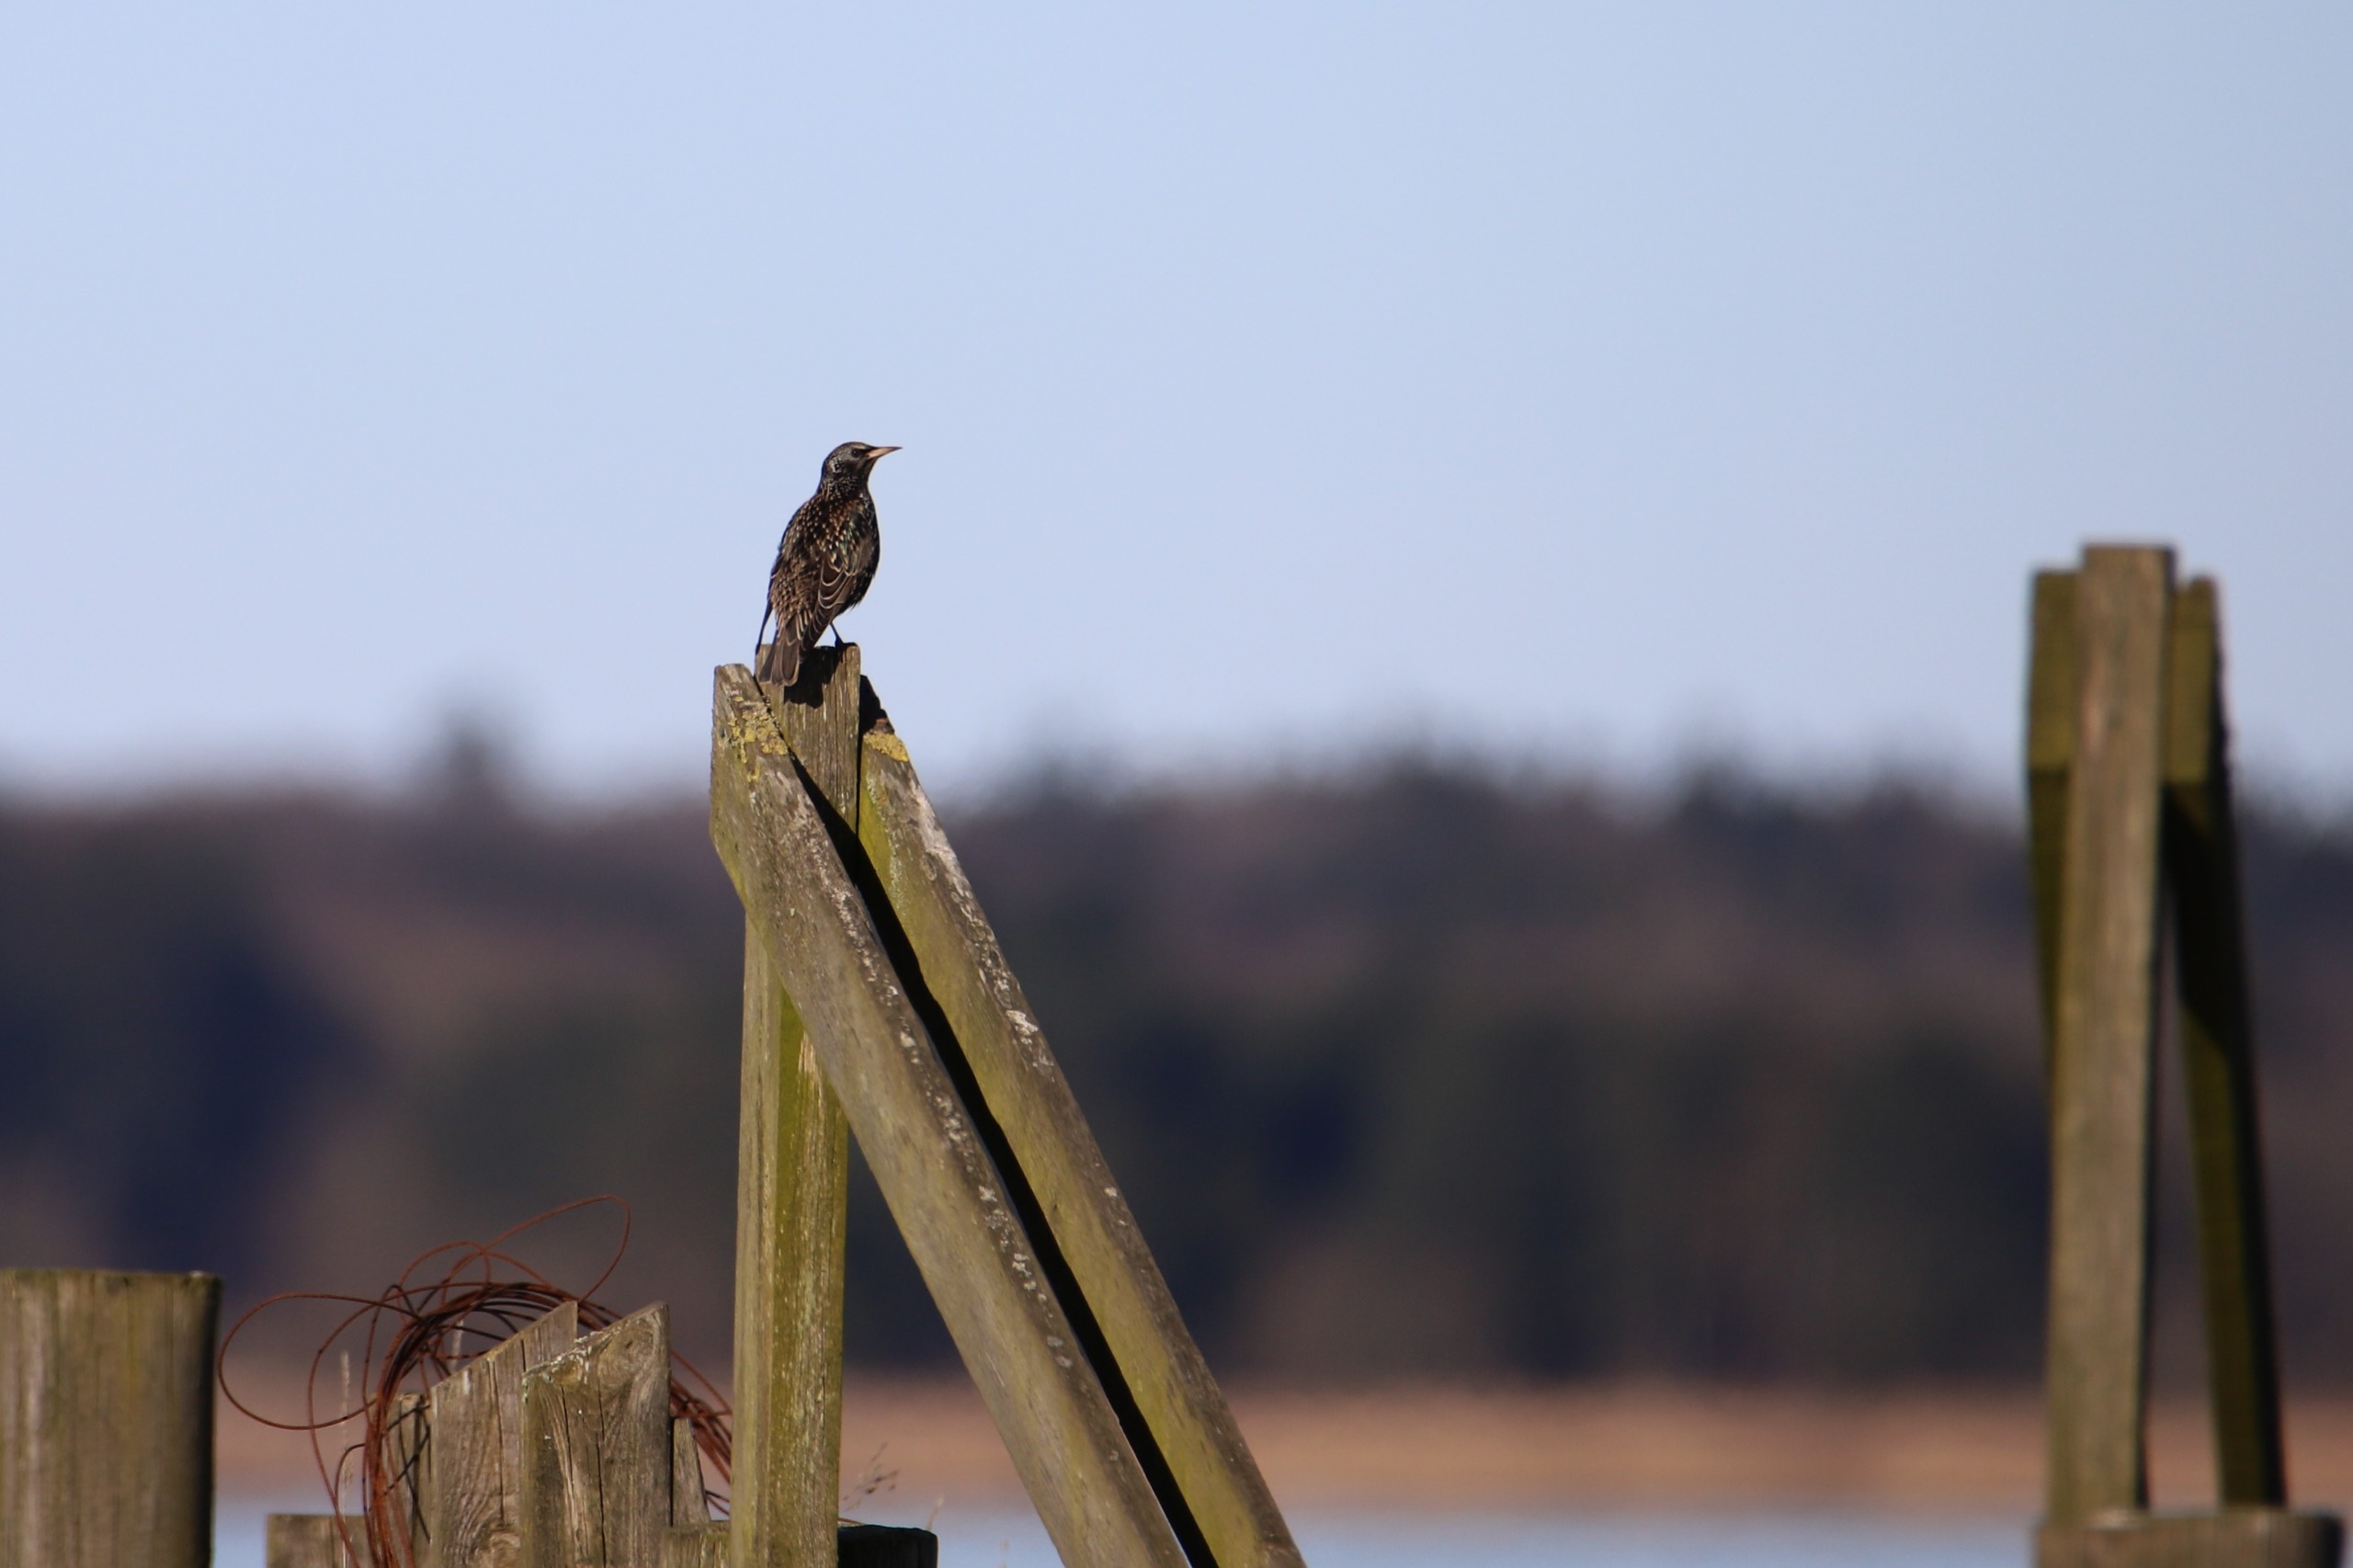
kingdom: Animalia
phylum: Chordata
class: Aves
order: Passeriformes
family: Sturnidae
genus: Sturnus
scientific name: Sturnus vulgaris
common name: Stær
